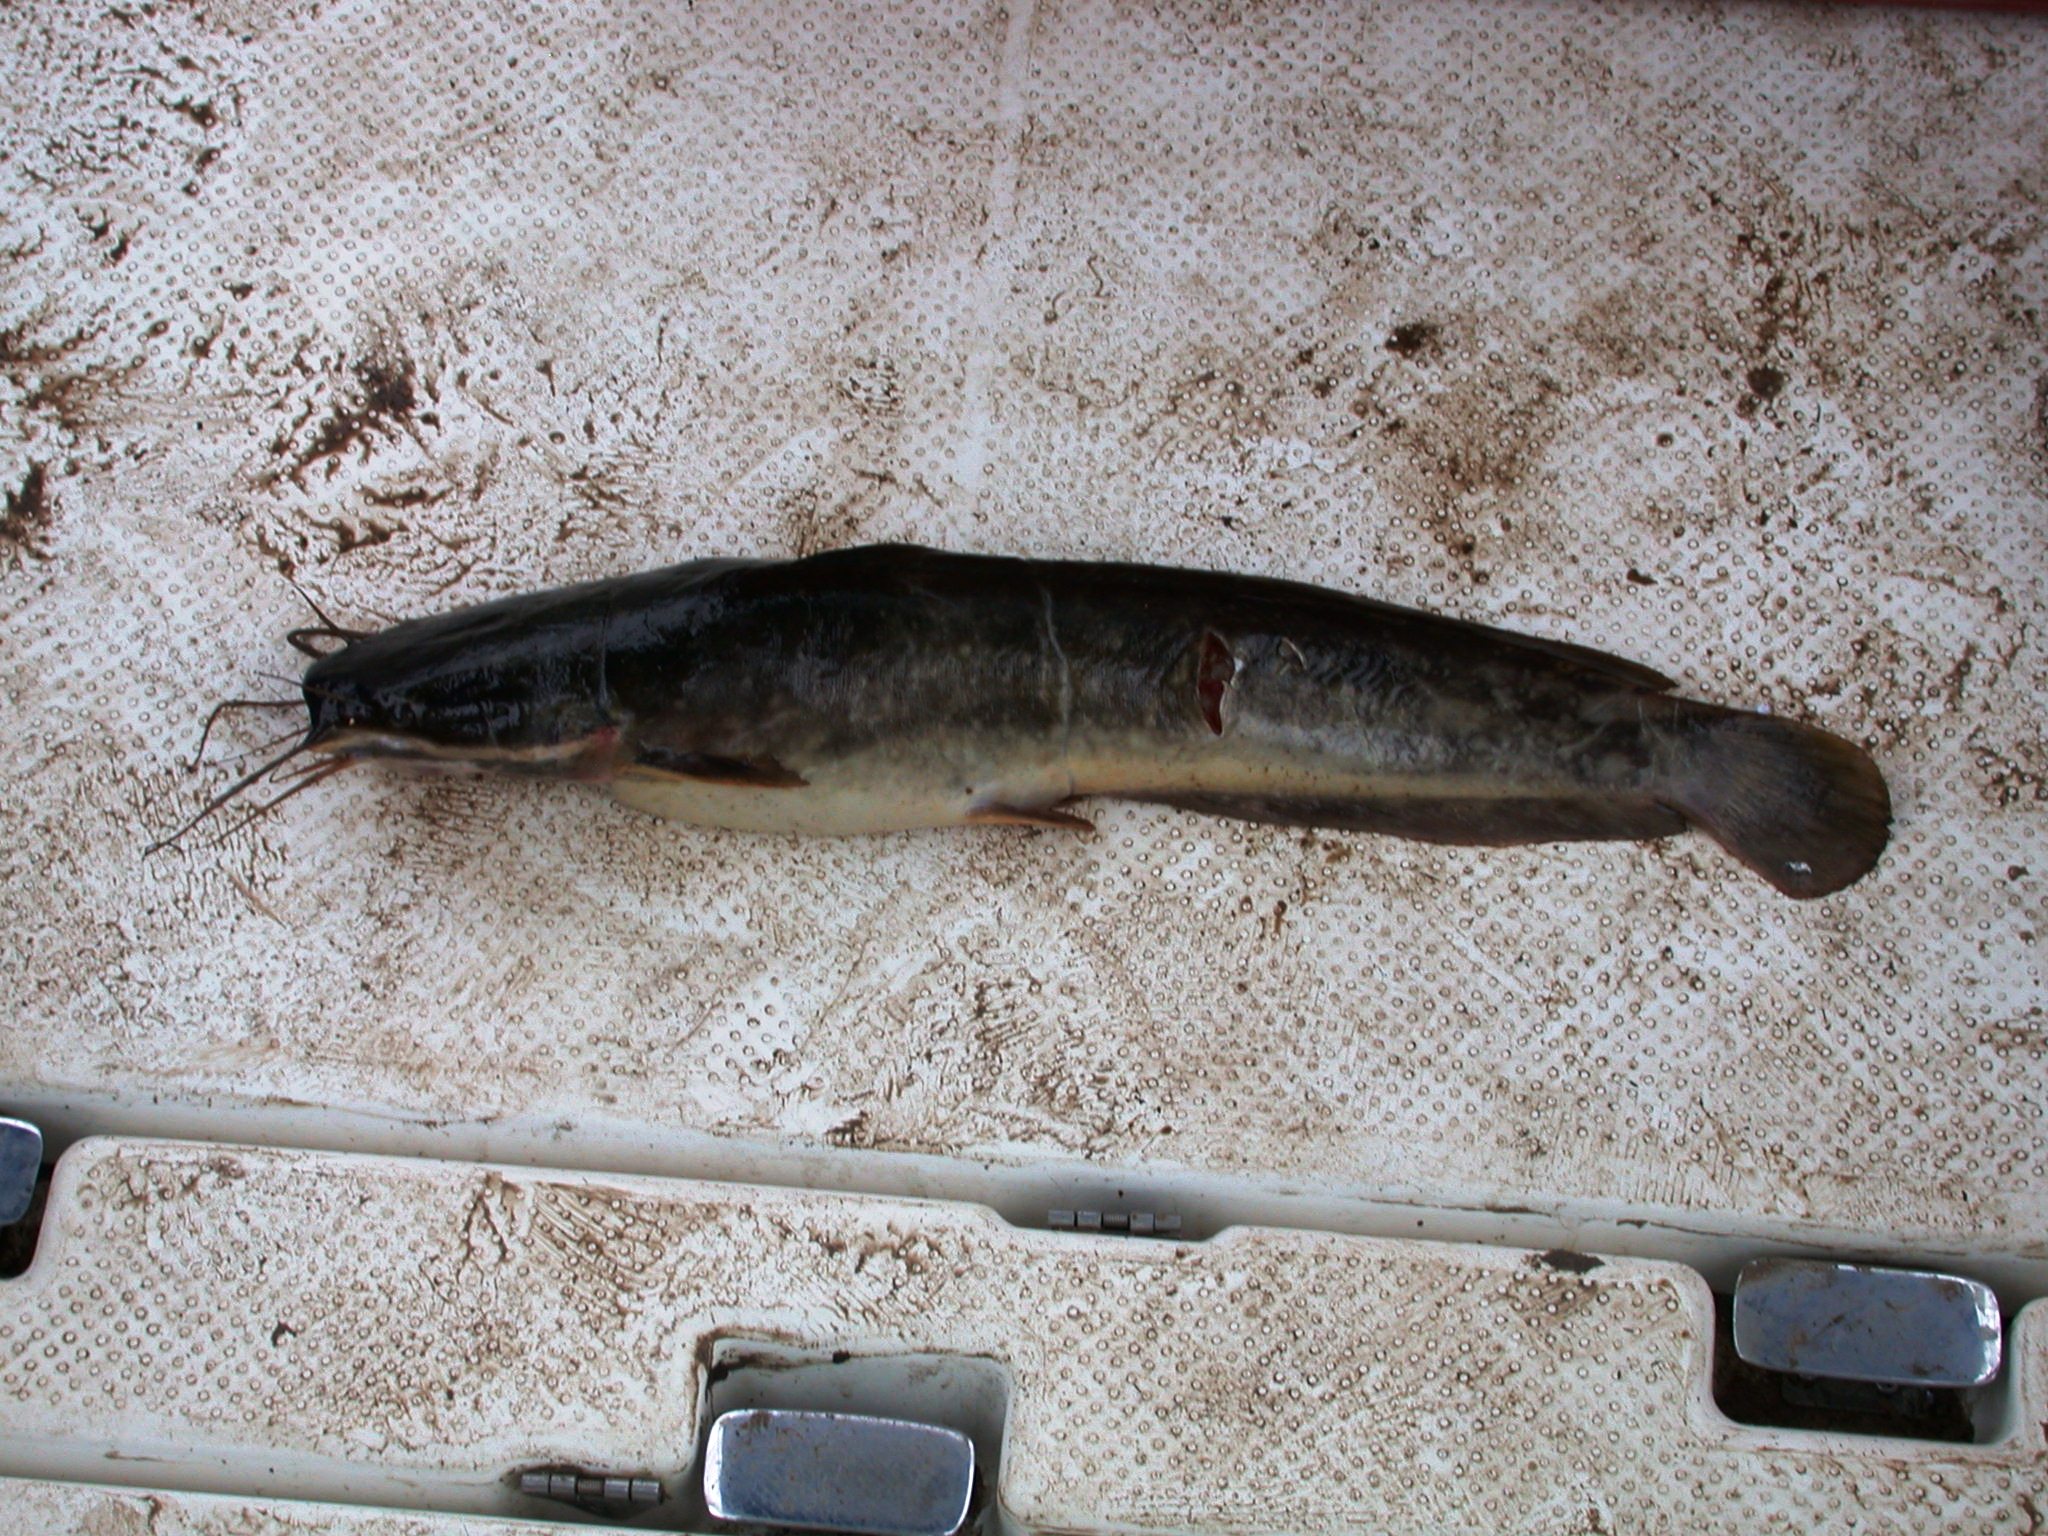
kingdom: Animalia
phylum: Chordata
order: Siluriformes
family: Clariidae
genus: Clarias
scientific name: Clarias gariepinus
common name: African catfish
